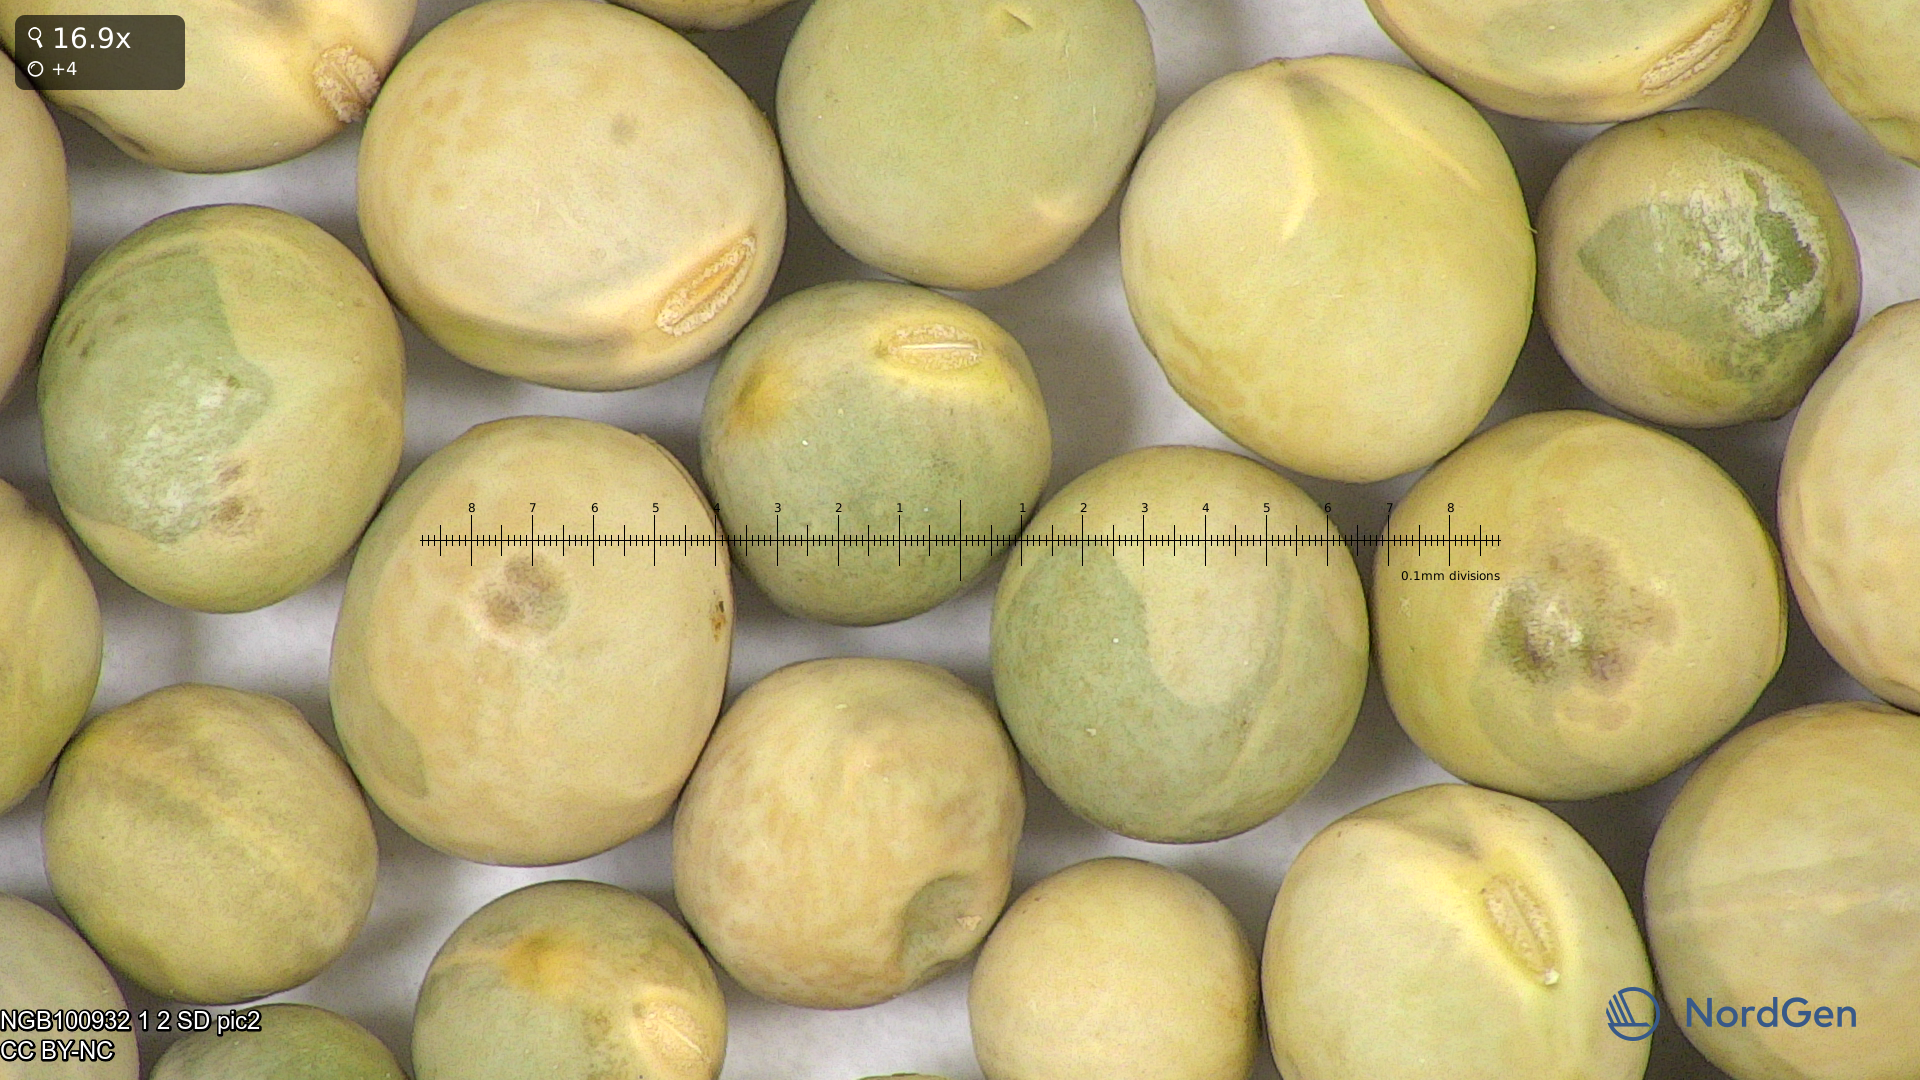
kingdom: Plantae
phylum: Tracheophyta
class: Magnoliopsida
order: Fabales
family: Fabaceae
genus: Lathyrus
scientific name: Lathyrus oleraceus
